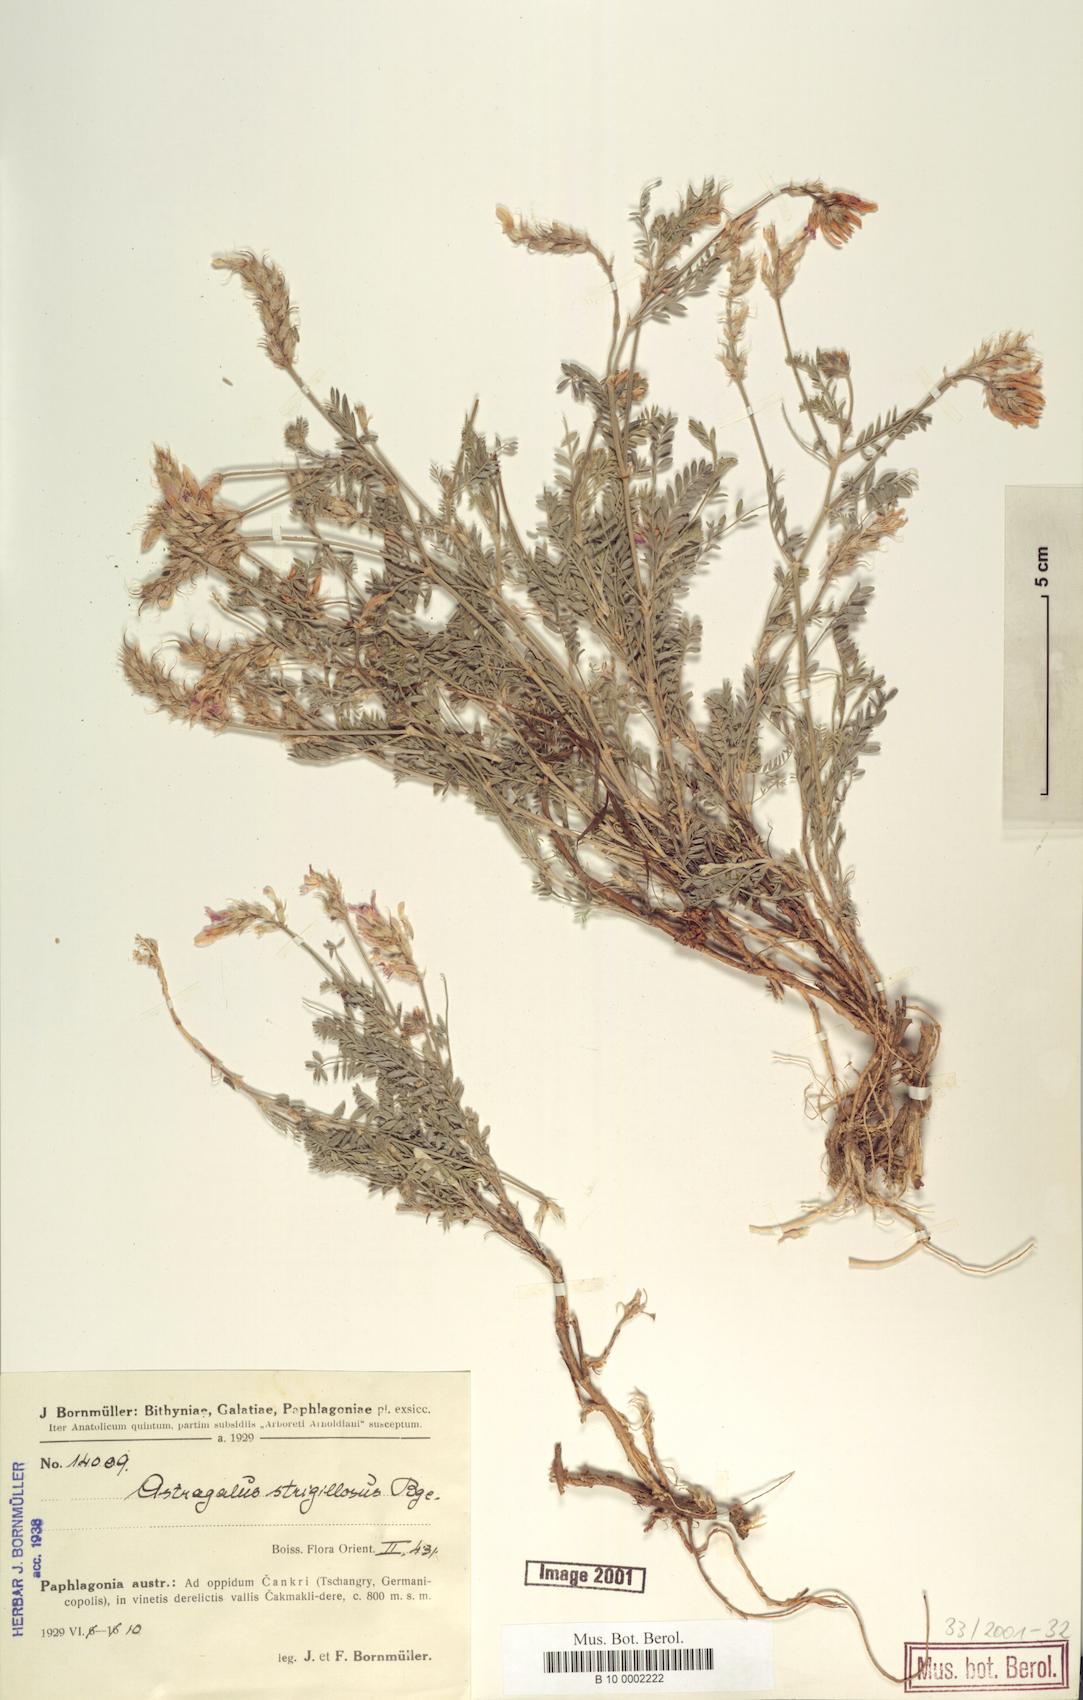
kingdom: Plantae
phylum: Tracheophyta
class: Magnoliopsida
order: Fabales
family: Fabaceae
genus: Astragalus
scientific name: Astragalus strigillosus
